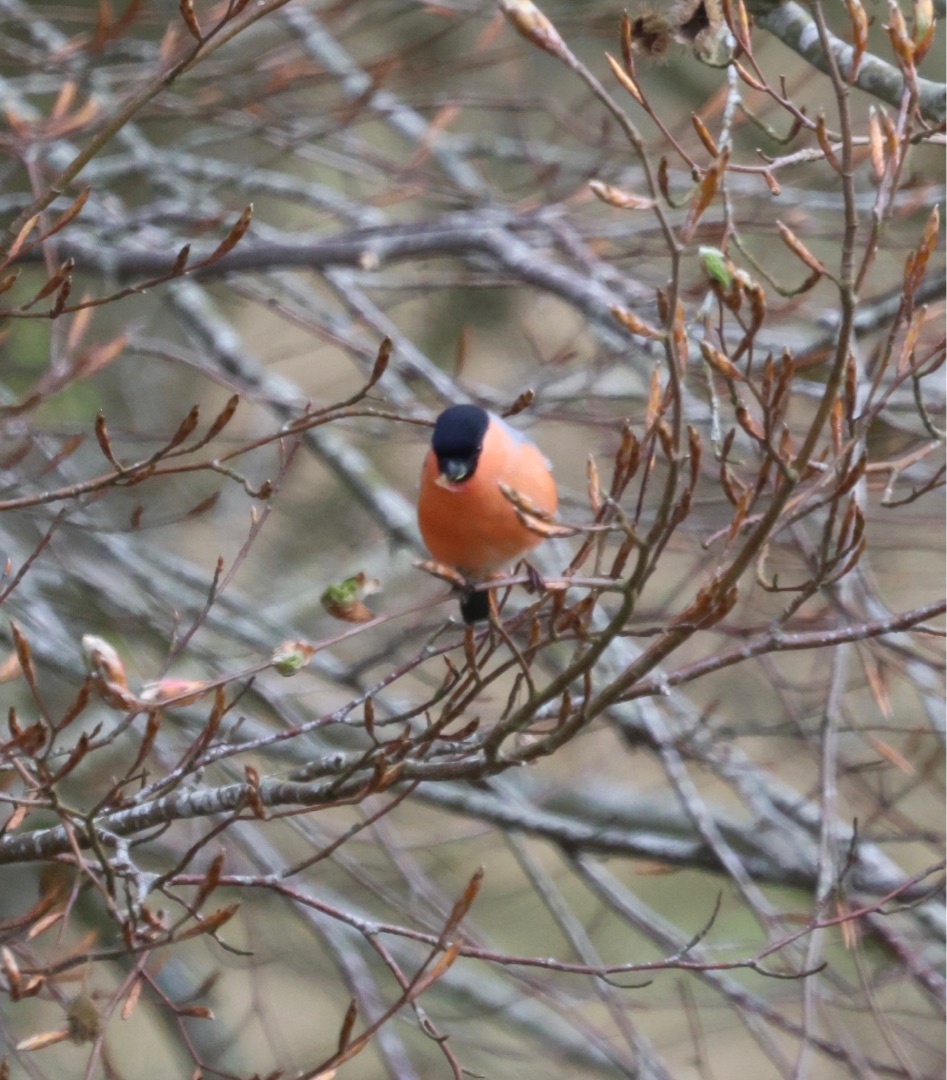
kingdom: Animalia
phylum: Chordata
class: Aves
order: Passeriformes
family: Fringillidae
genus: Pyrrhula
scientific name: Pyrrhula pyrrhula
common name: Dompap
